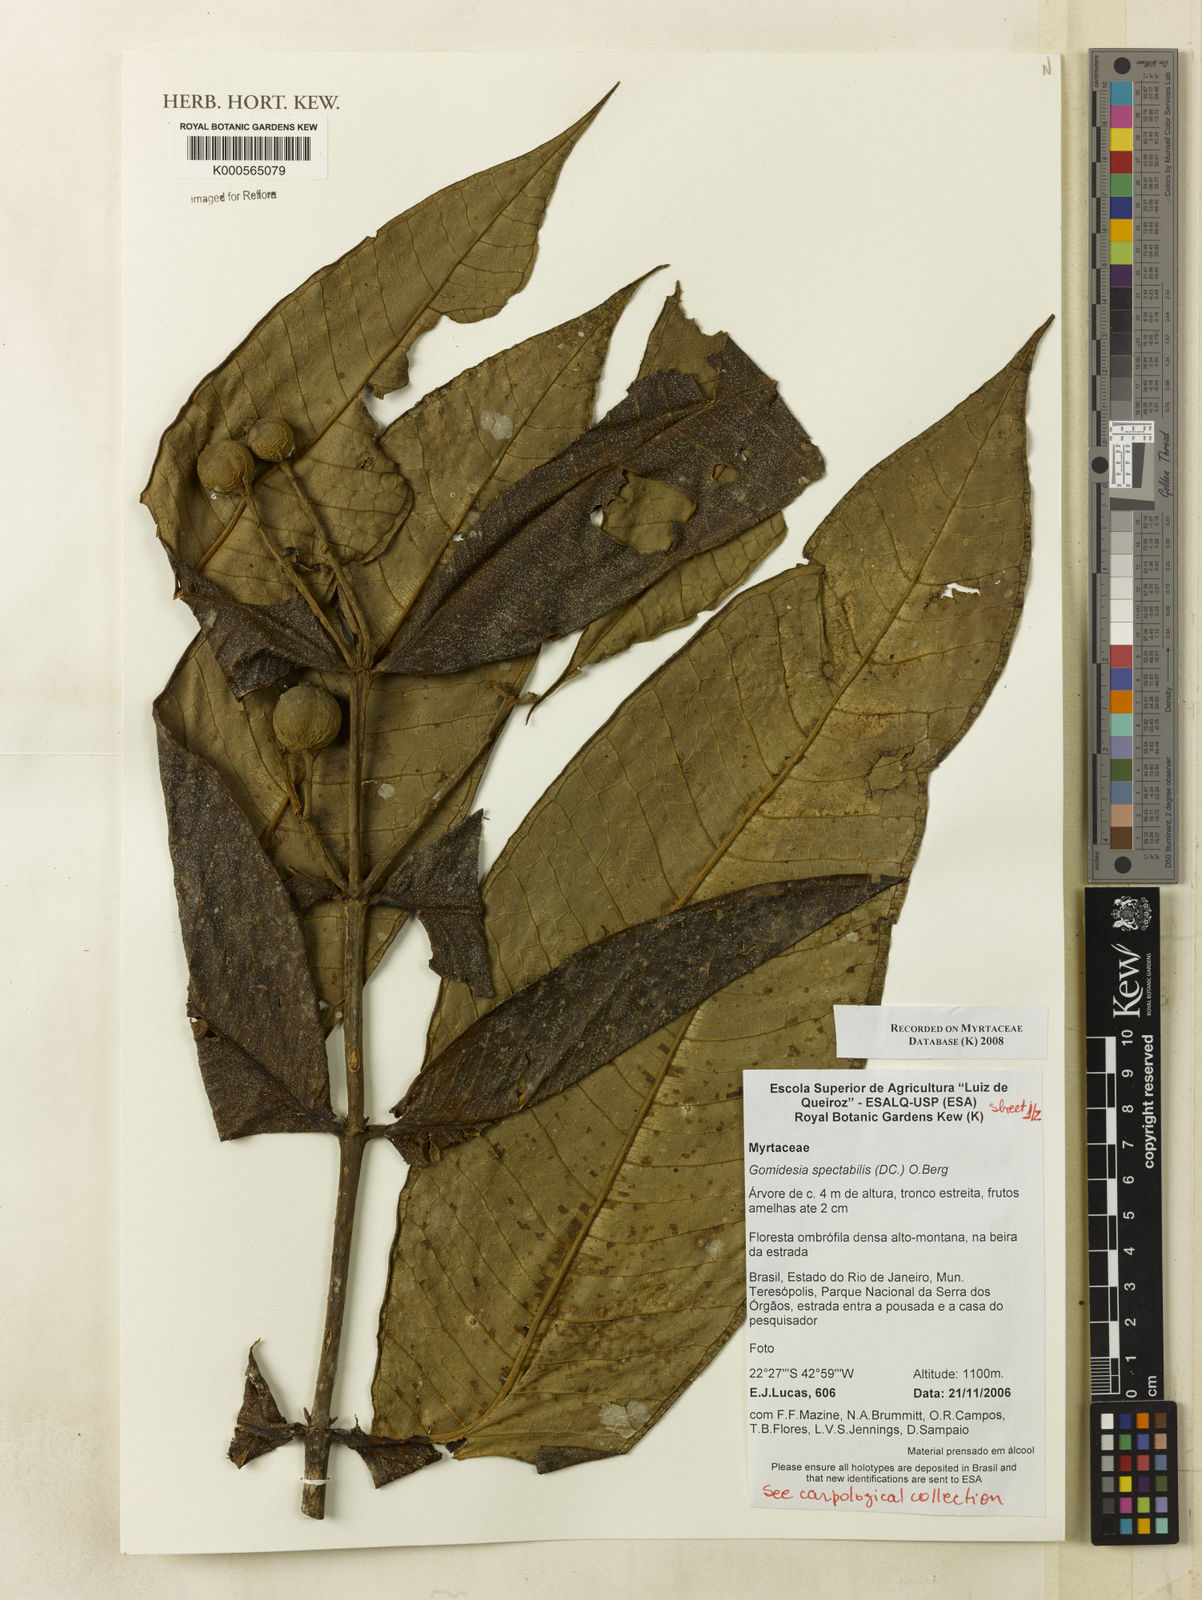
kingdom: Plantae
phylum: Tracheophyta
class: Magnoliopsida
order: Myrtales
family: Myrtaceae
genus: Myrcia
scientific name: Myrcia spectabilis
